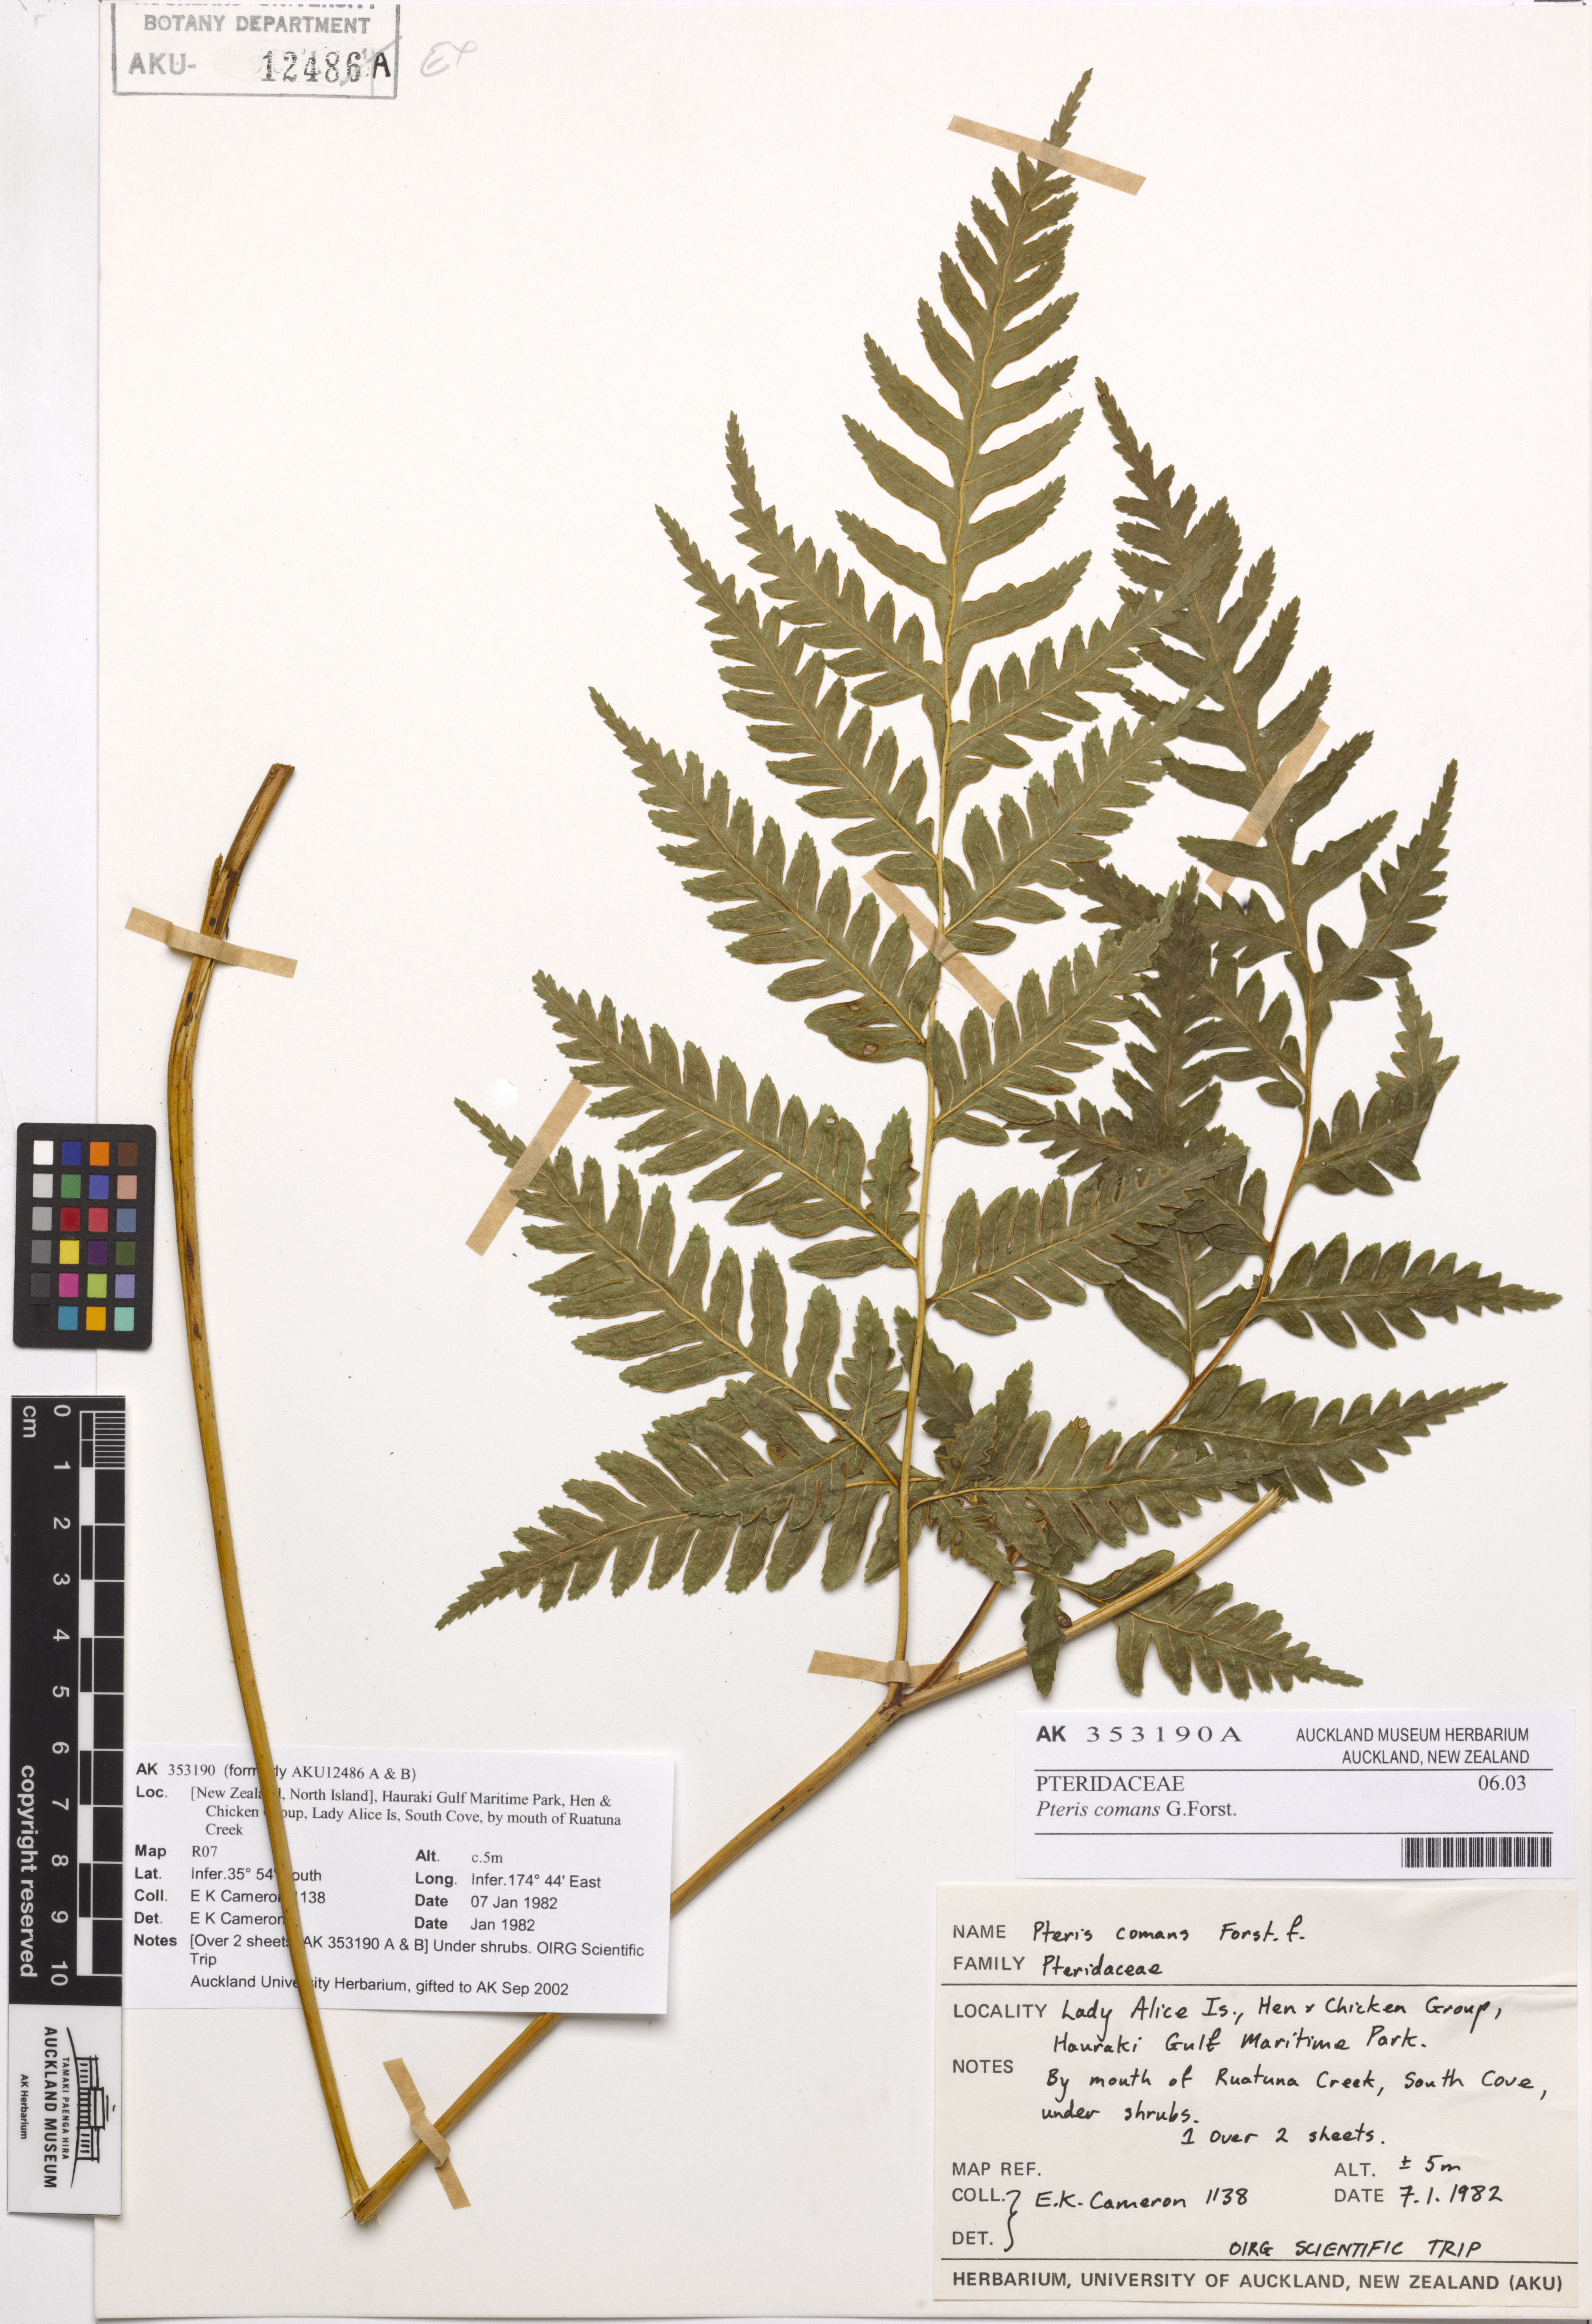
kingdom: Plantae
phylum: Tracheophyta
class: Polypodiopsida
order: Polypodiales
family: Pteridaceae
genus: Pteris
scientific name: Pteris comans
